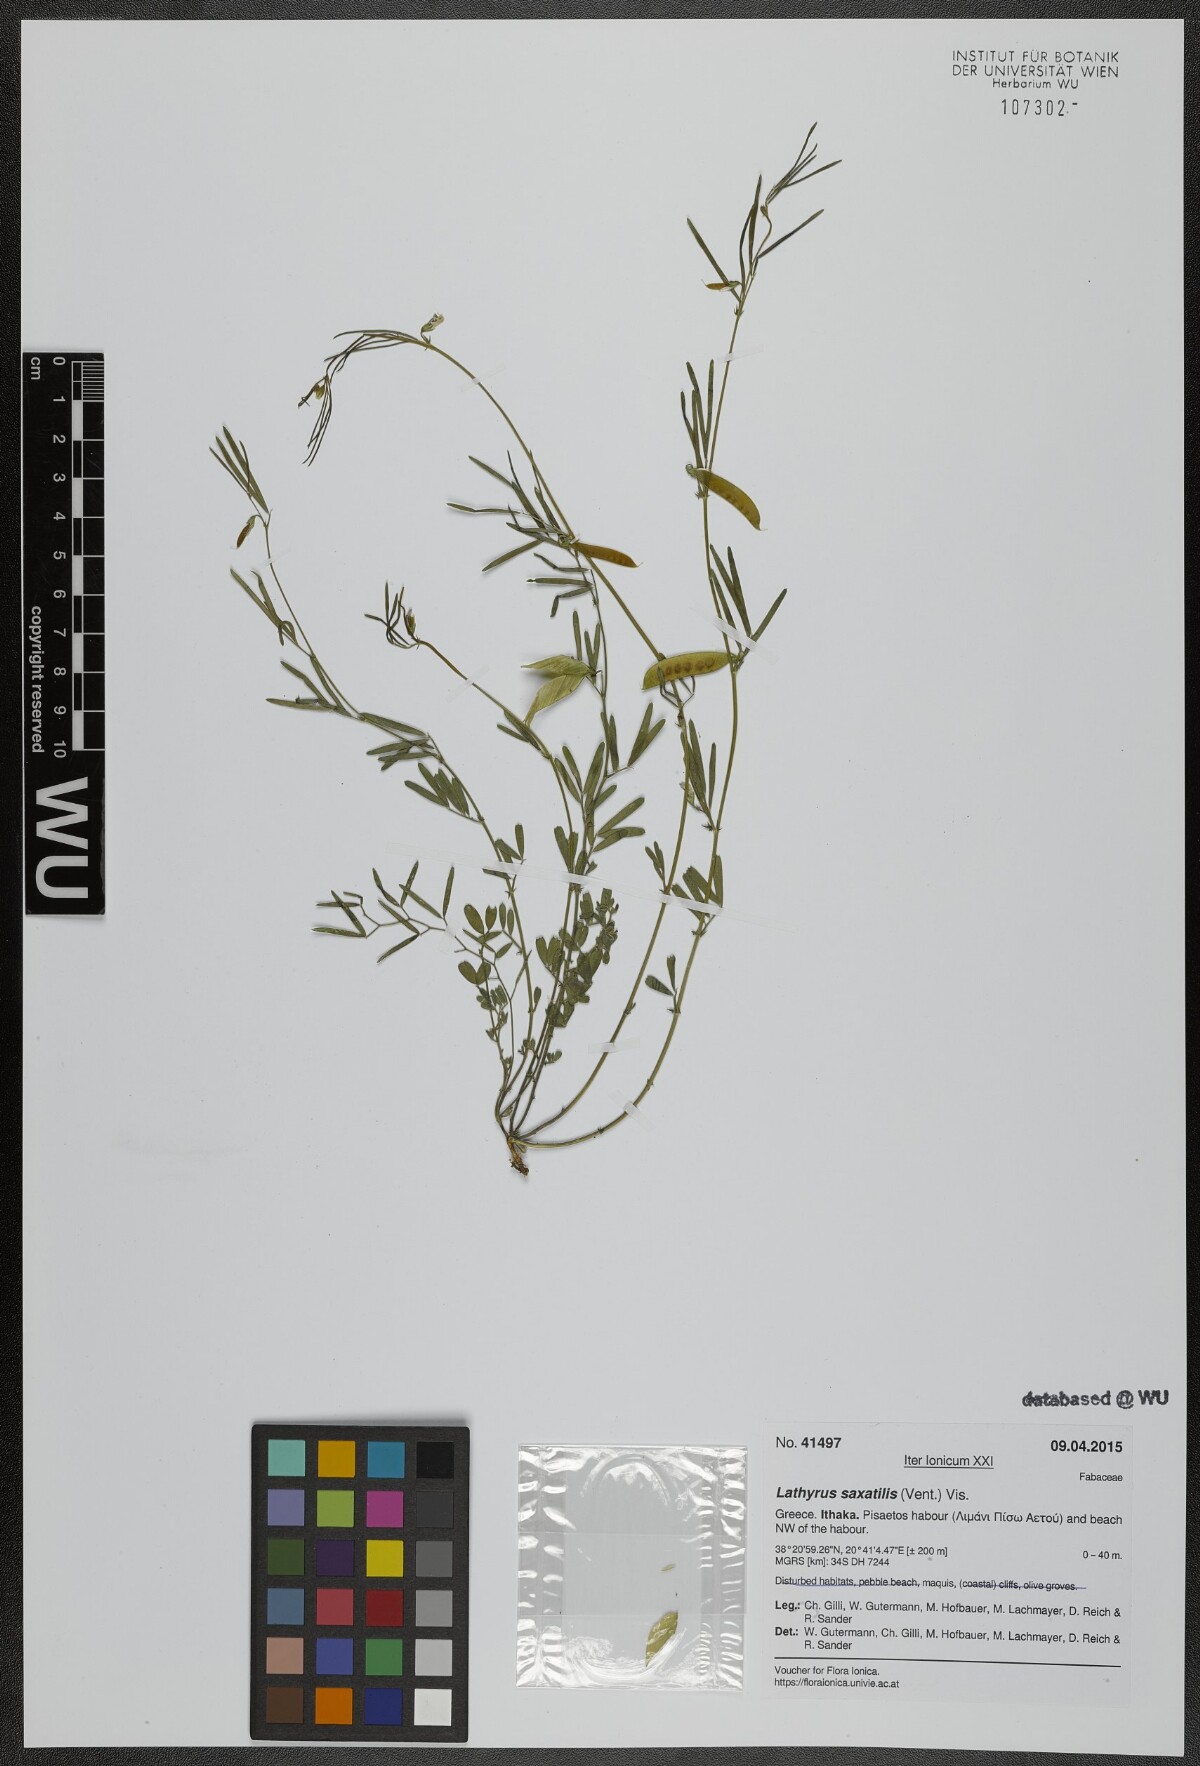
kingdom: Plantae
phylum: Tracheophyta
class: Magnoliopsida
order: Fabales
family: Fabaceae
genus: Lathyrus
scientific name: Lathyrus saxatilis
